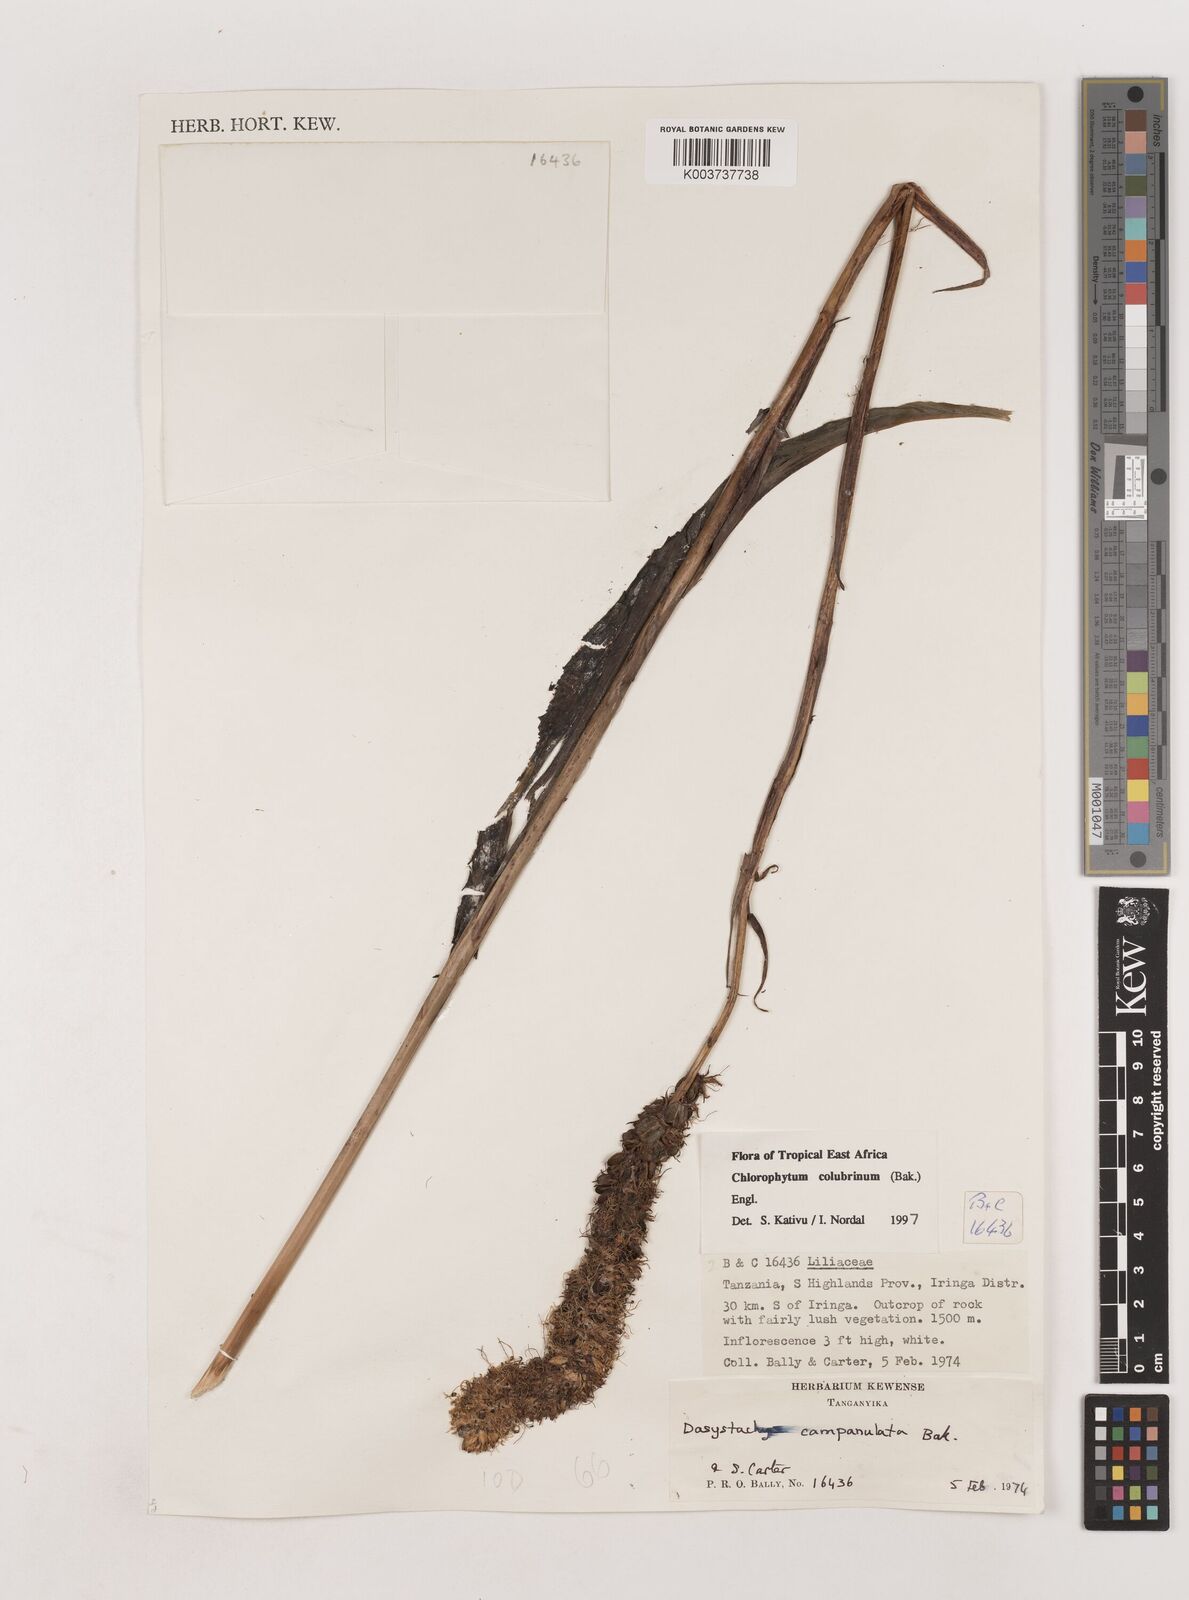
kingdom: Plantae
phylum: Tracheophyta
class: Liliopsida
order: Asparagales
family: Asparagaceae
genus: Chlorophytum
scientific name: Chlorophytum colubrinum
